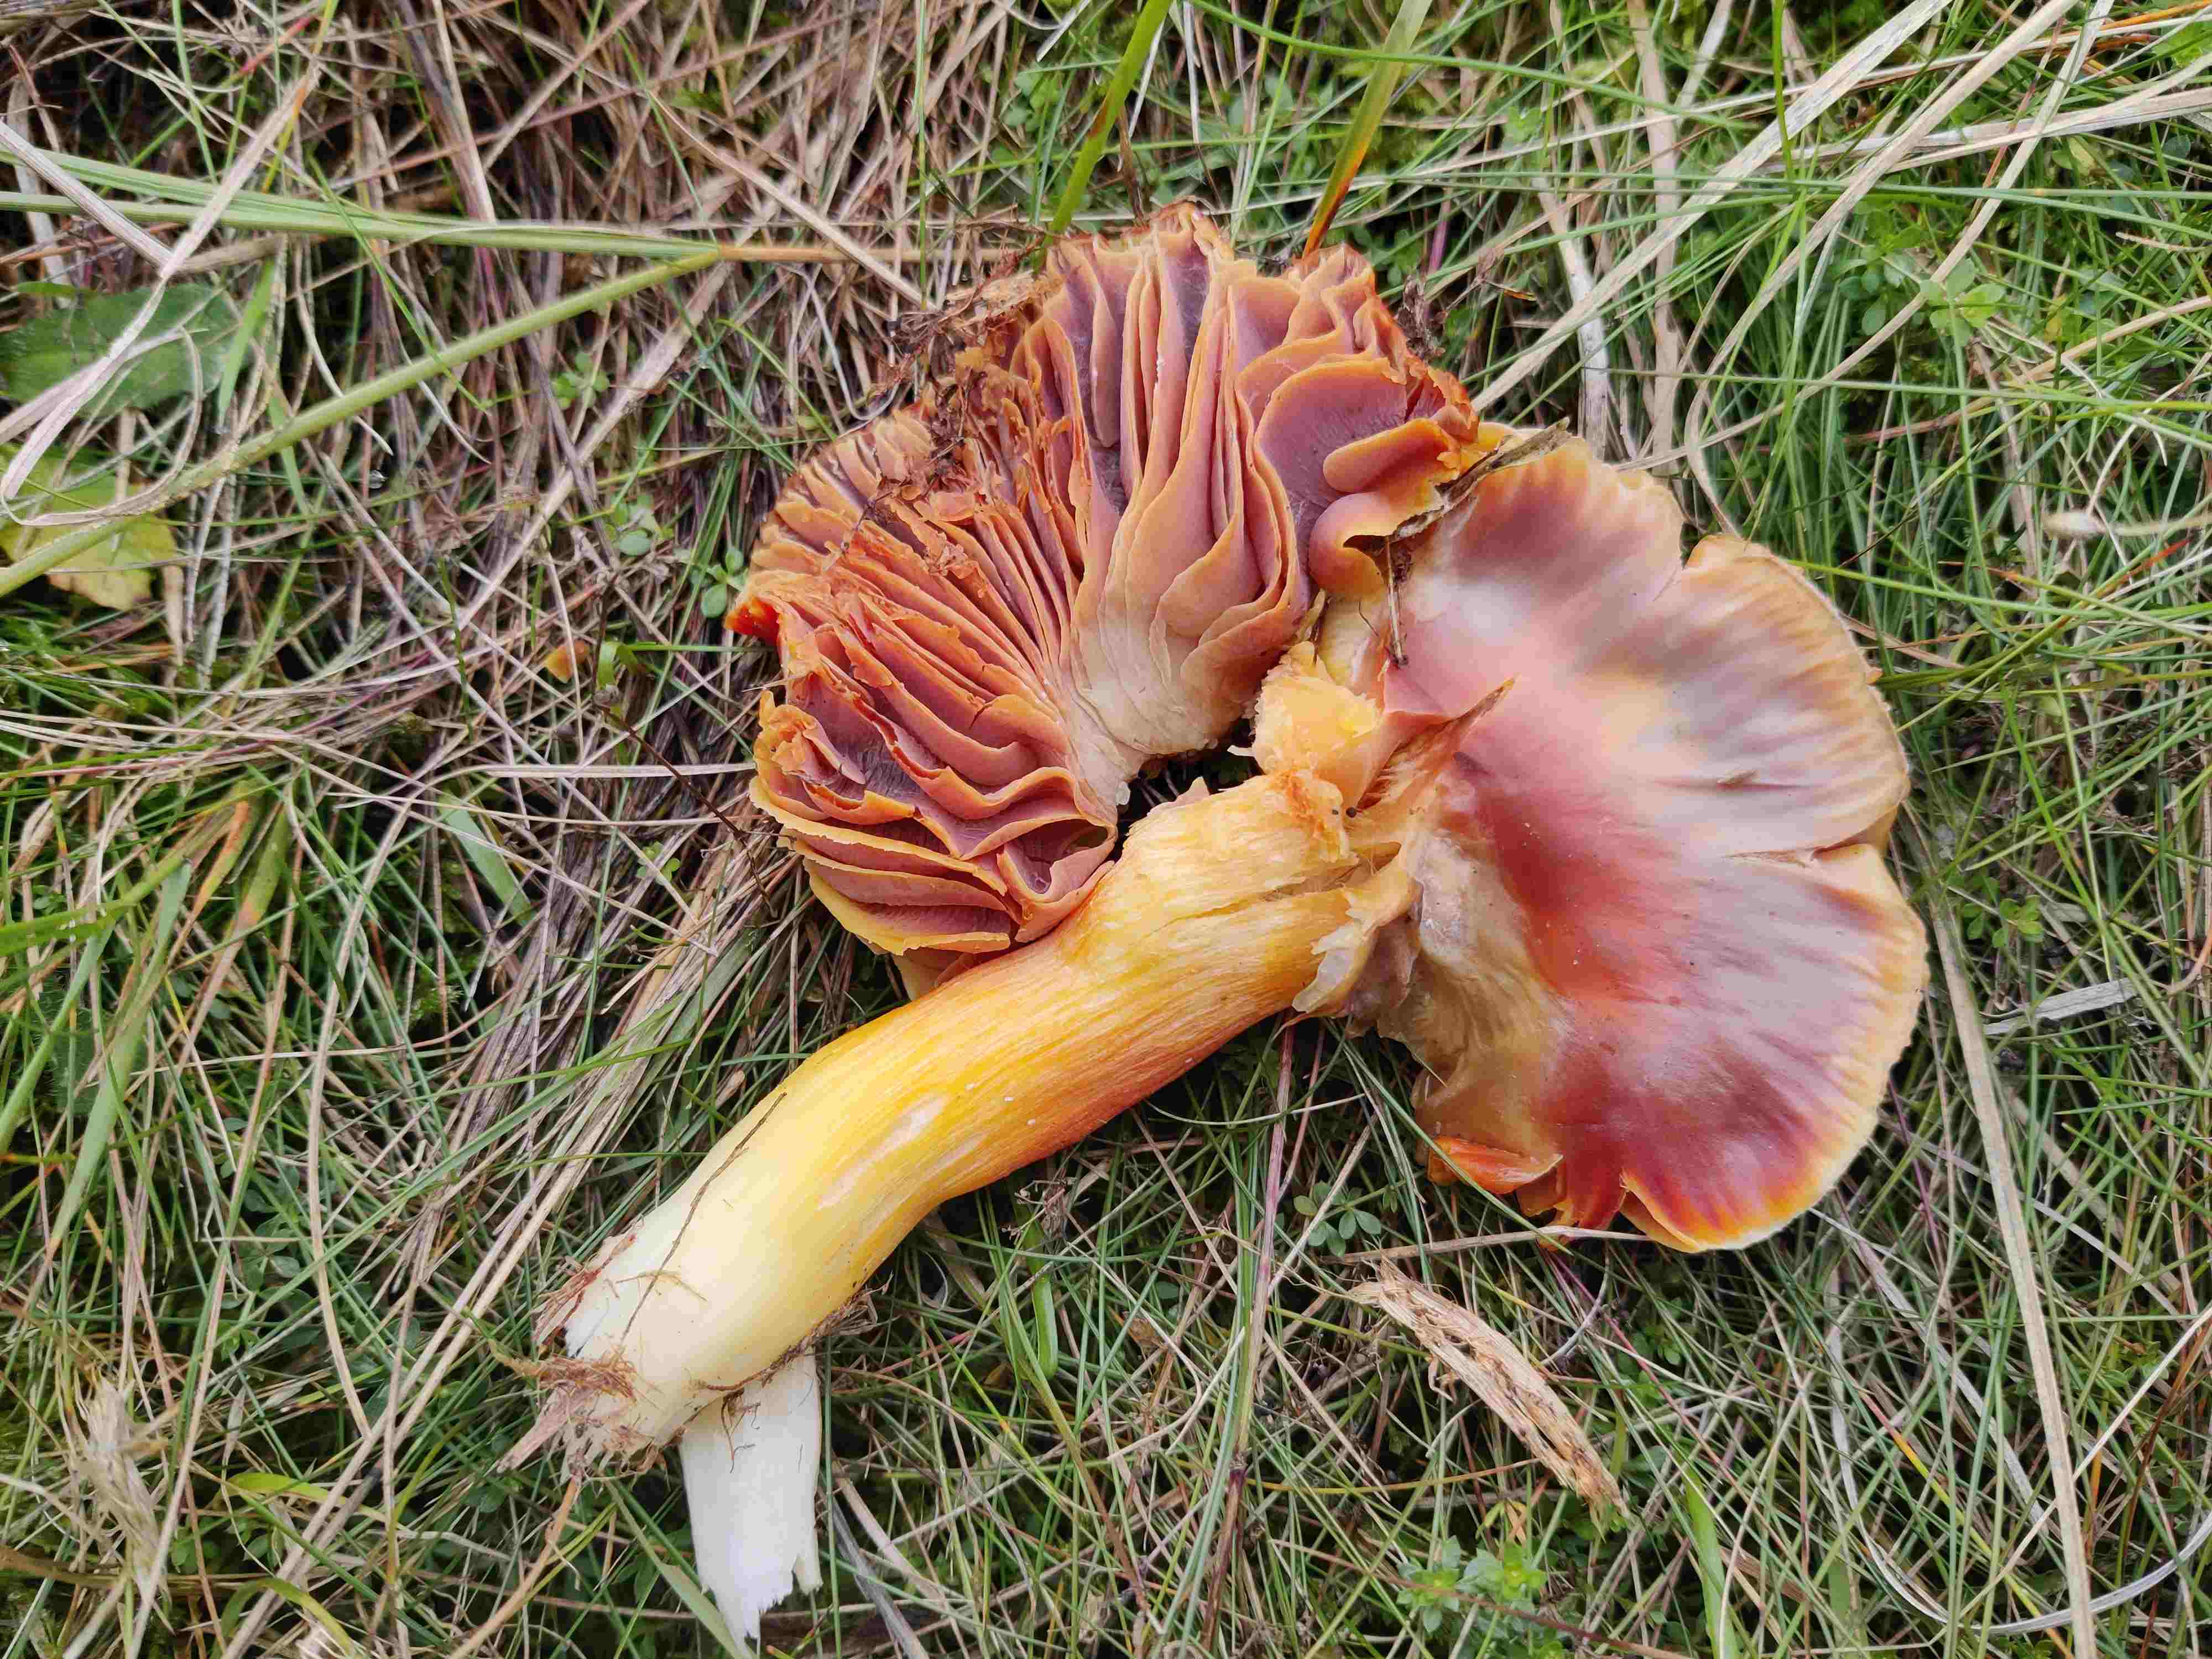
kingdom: Fungi
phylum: Basidiomycota
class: Agaricomycetes
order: Agaricales
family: Hygrophoraceae
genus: Hygrocybe
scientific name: Hygrocybe punicea
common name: skarlagen-vokshat
